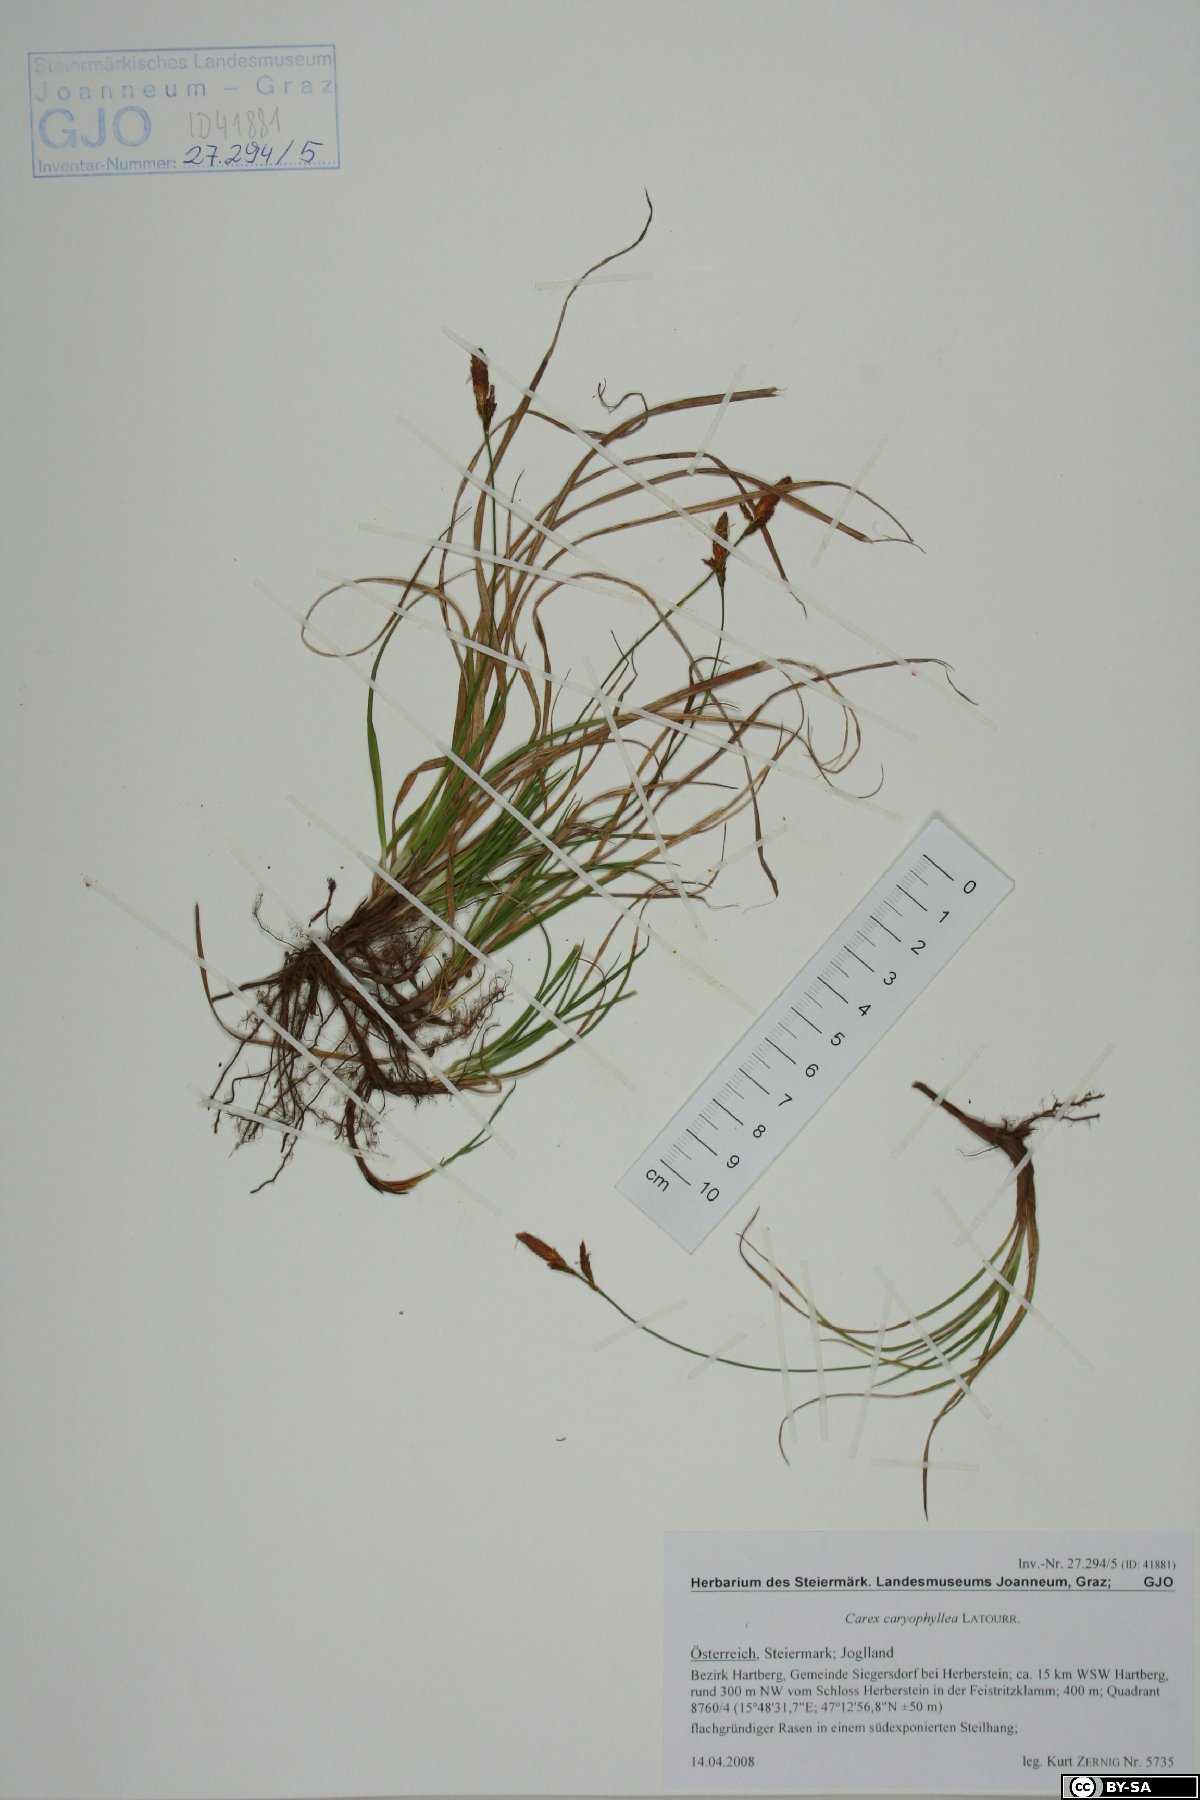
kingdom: Plantae
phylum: Tracheophyta
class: Liliopsida
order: Poales
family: Cyperaceae
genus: Carex
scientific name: Carex caryophyllea
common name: Spring sedge
